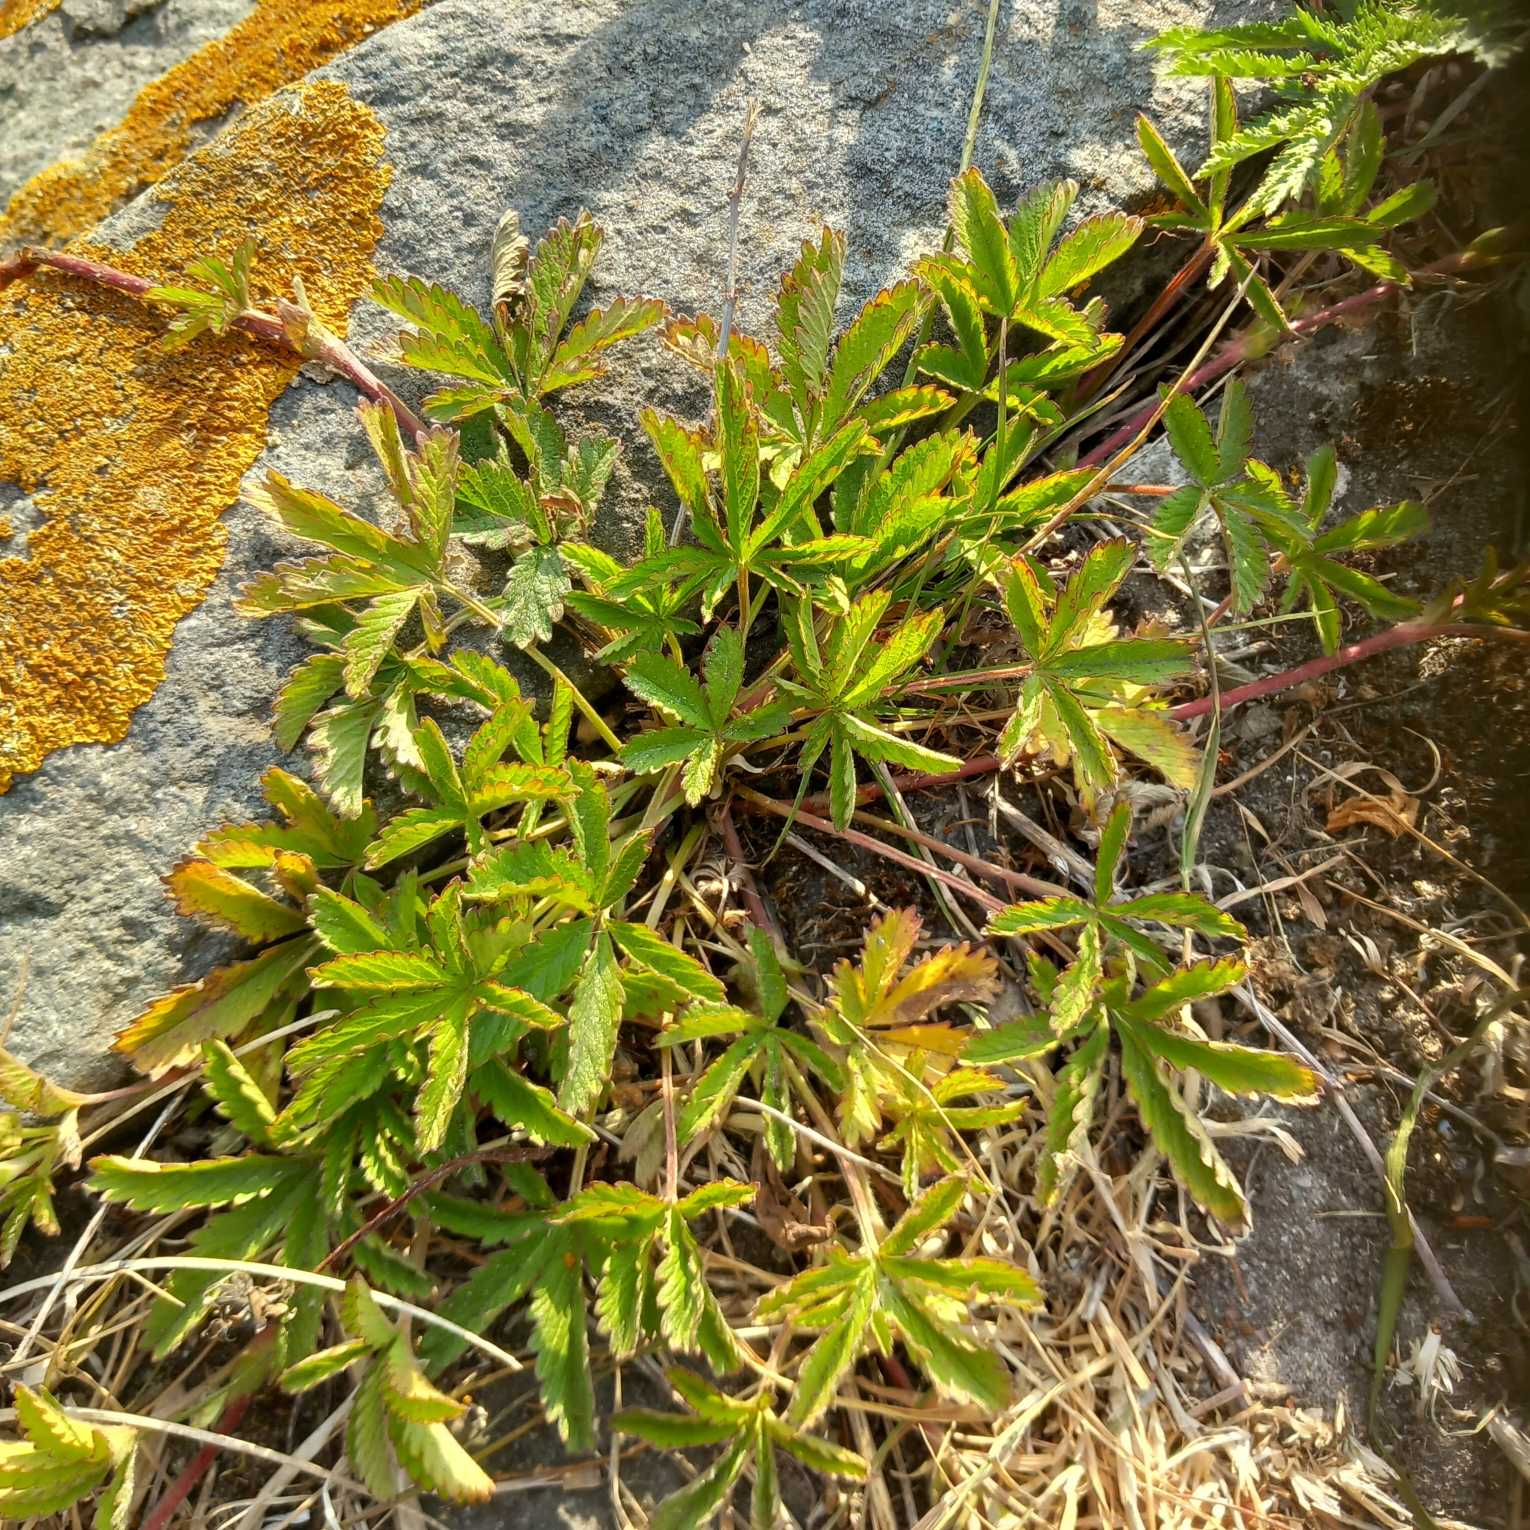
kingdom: Plantae
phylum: Tracheophyta
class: Magnoliopsida
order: Rosales
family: Rosaceae
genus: Potentilla
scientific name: Potentilla reptans
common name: Krybende potentil
